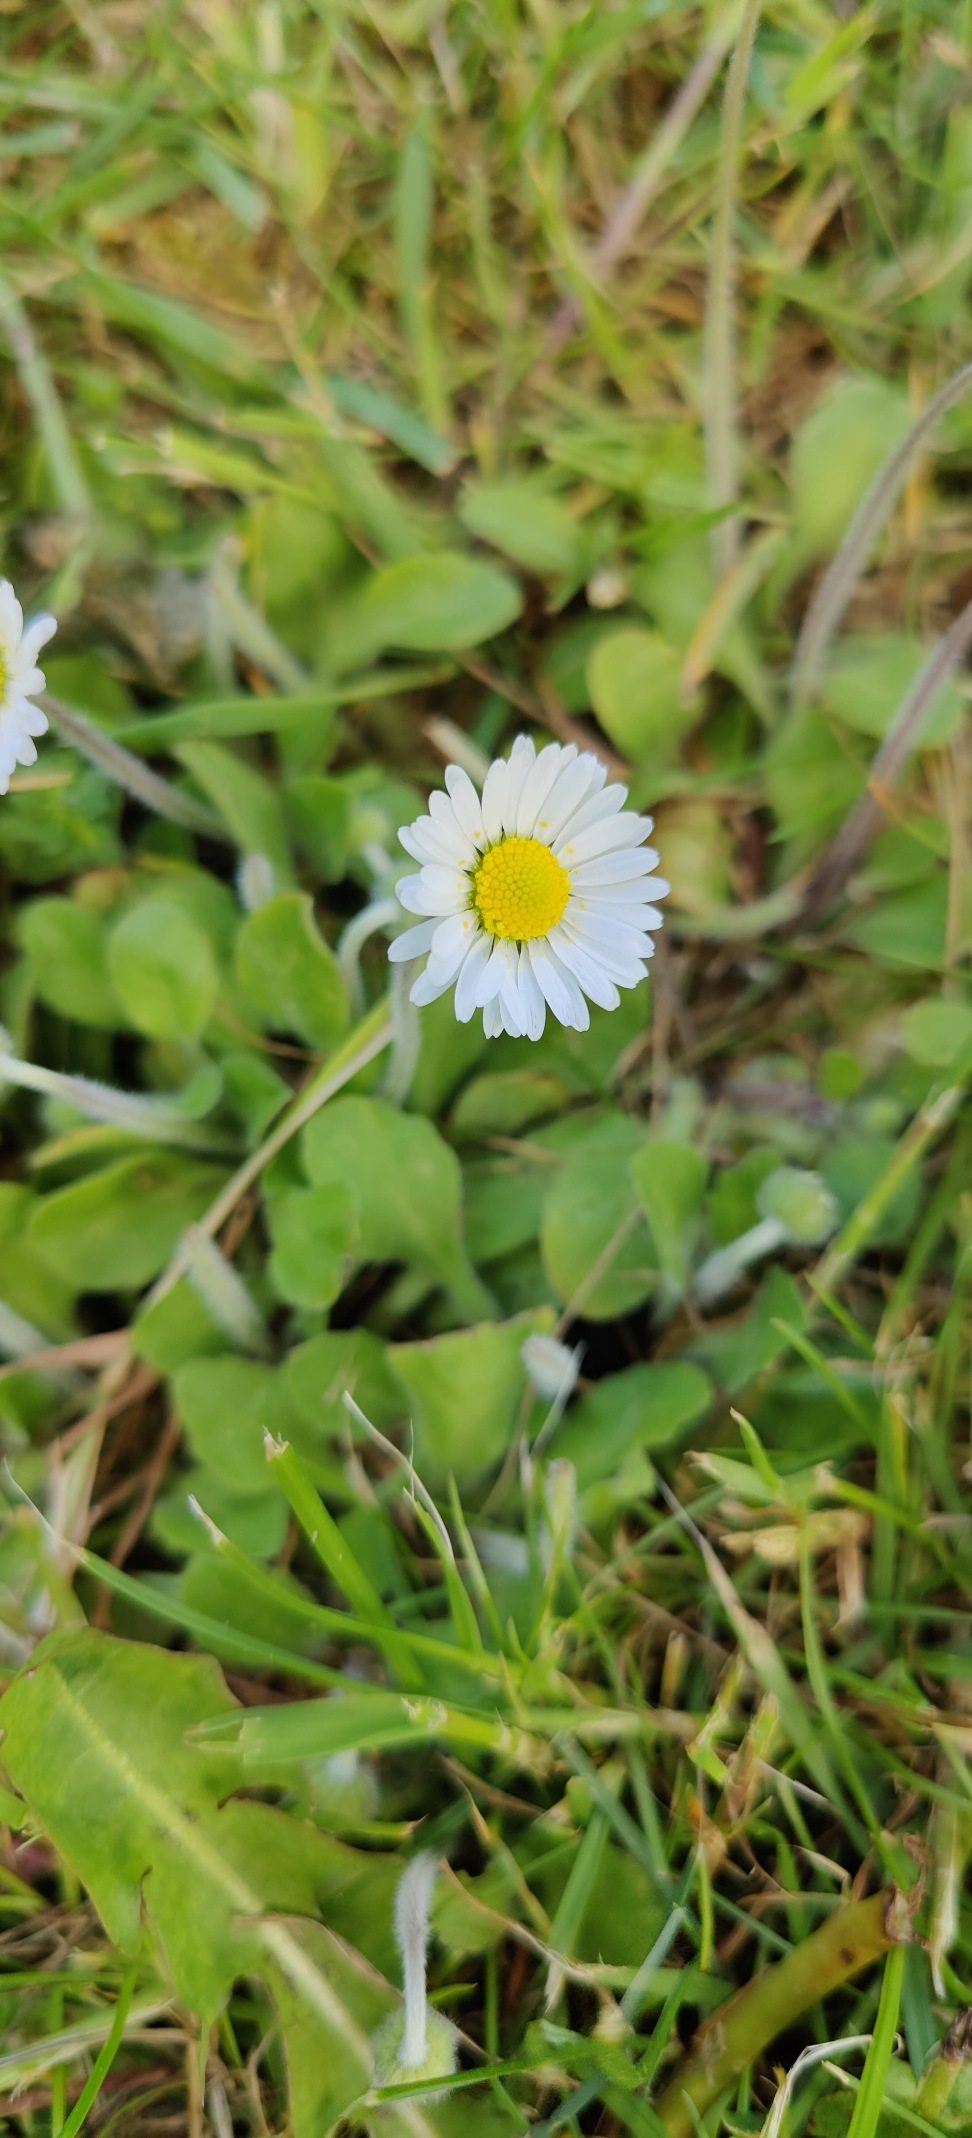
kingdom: Plantae
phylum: Tracheophyta
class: Magnoliopsida
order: Asterales
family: Asteraceae
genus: Bellis
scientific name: Bellis perennis
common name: Tusindfryd
